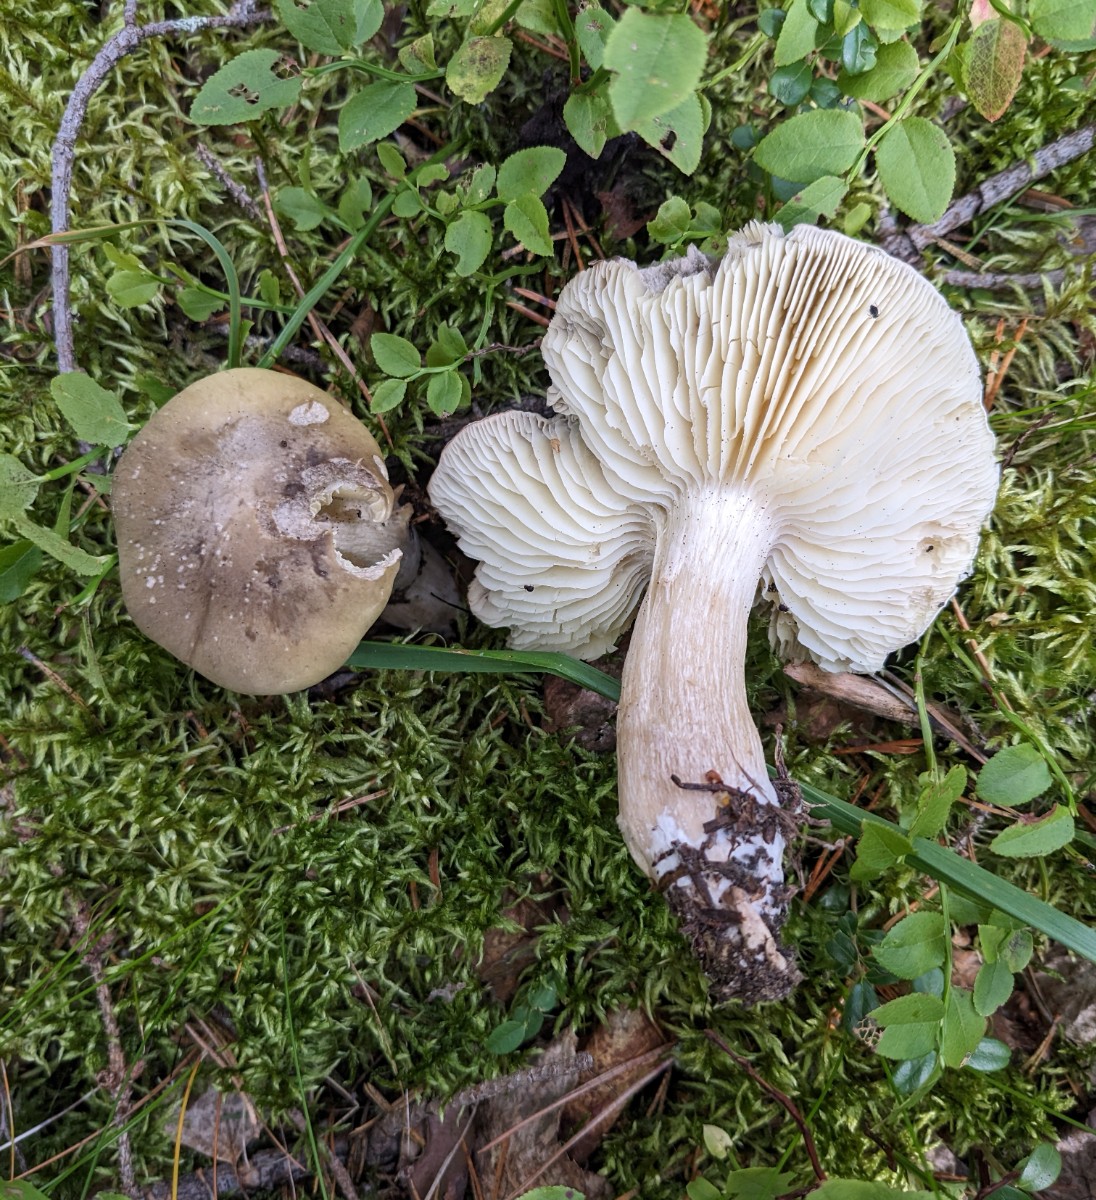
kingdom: Fungi
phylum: Basidiomycota
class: Agaricomycetes
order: Agaricales
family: Tricholomataceae
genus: Tricholoma
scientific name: Tricholoma rapipes
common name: olivengul ridderhat
